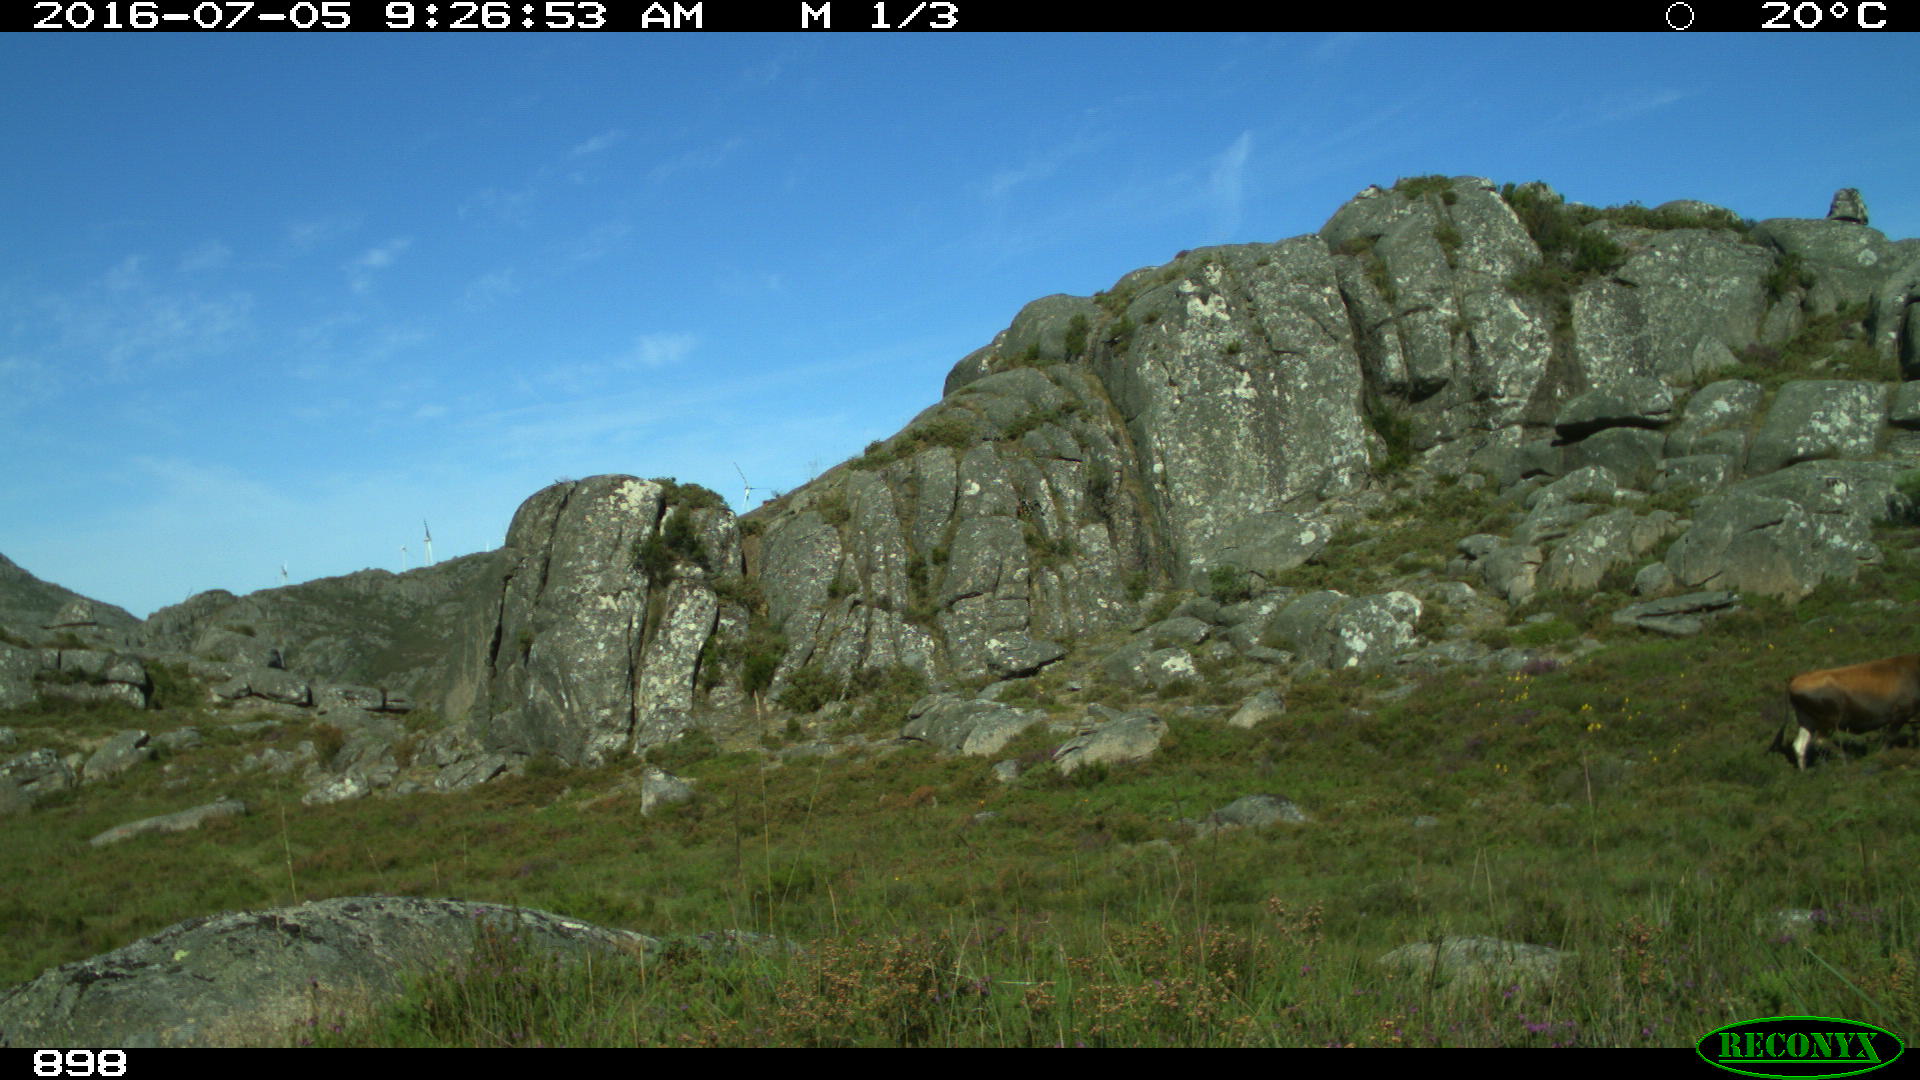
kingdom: Animalia
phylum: Chordata
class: Mammalia
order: Artiodactyla
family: Bovidae
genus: Bos
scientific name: Bos taurus
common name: Domesticated cattle
